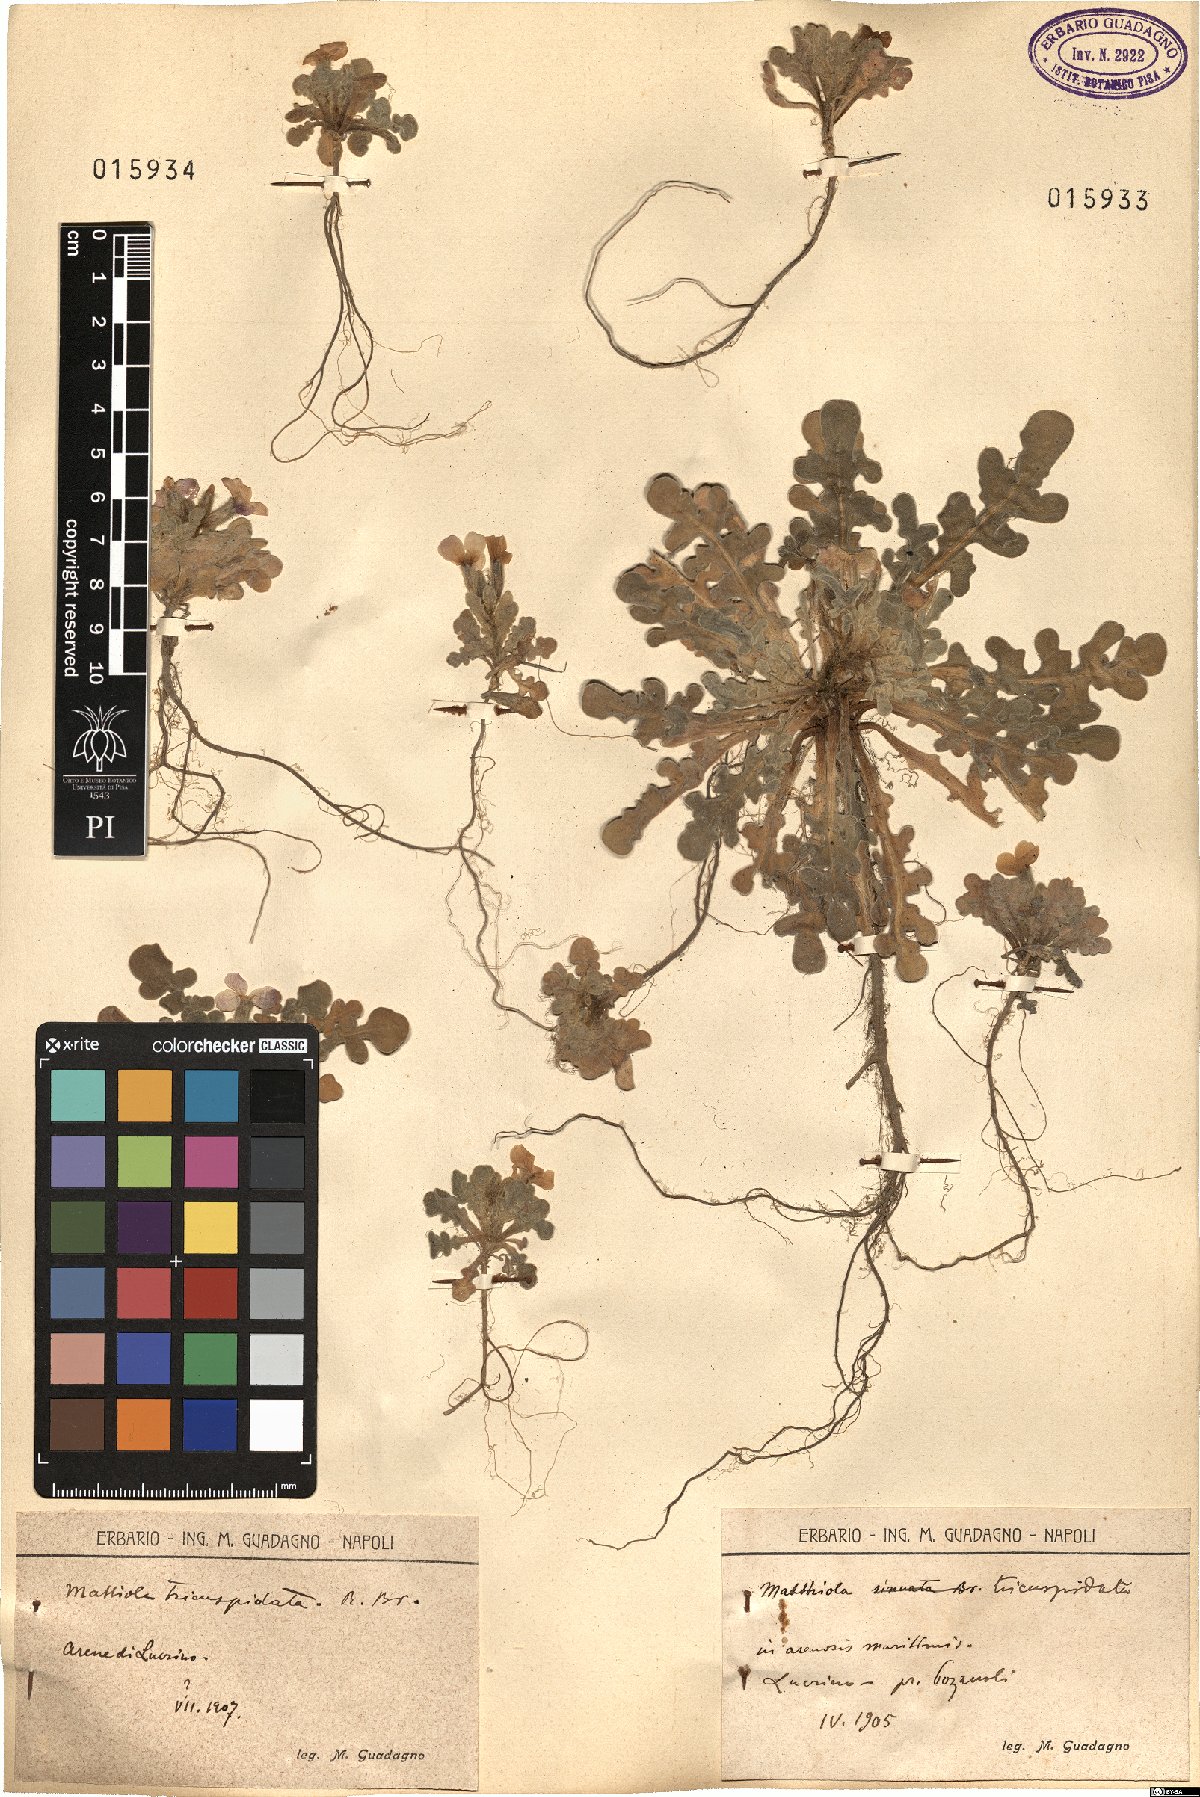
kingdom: Plantae
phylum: Tracheophyta
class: Magnoliopsida
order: Brassicales
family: Brassicaceae
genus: Matthiola
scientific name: Matthiola tricuspidata
